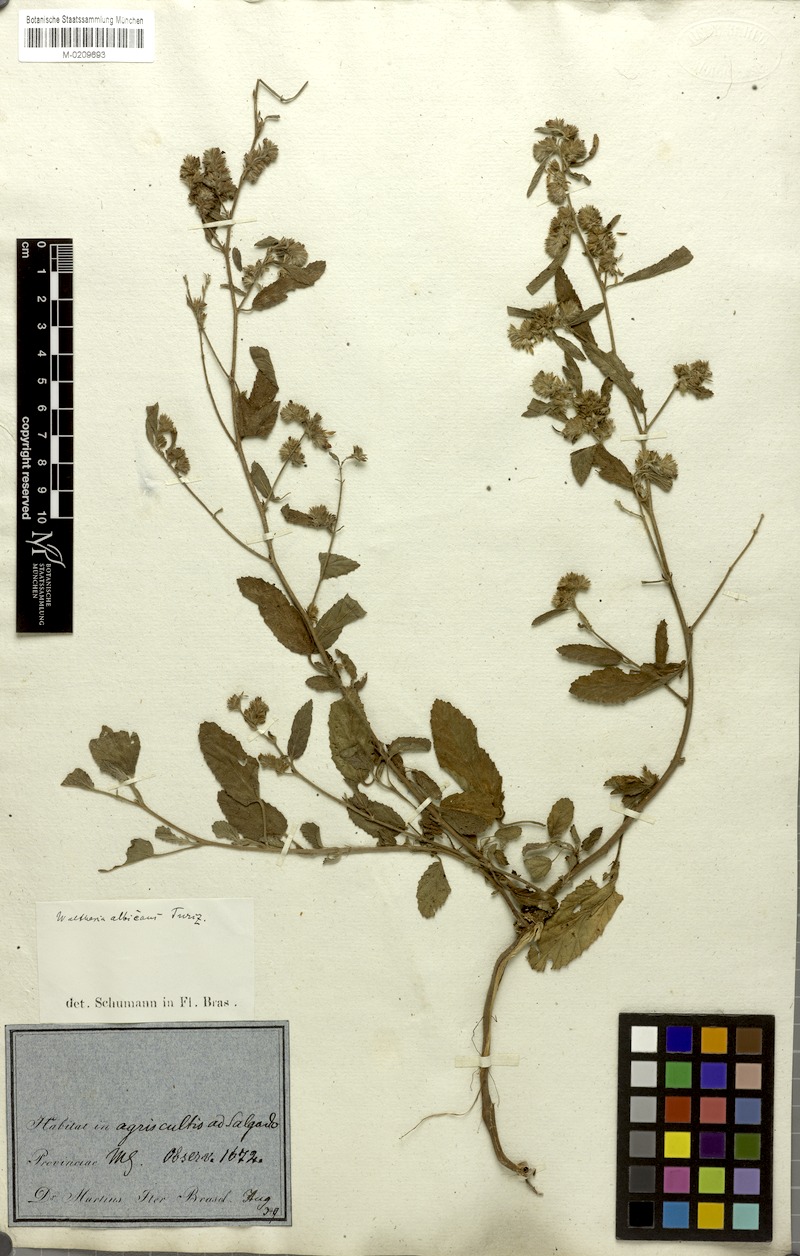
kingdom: Plantae
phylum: Tracheophyta
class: Magnoliopsida
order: Malvales
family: Malvaceae
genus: Waltheria
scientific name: Waltheria albicans
